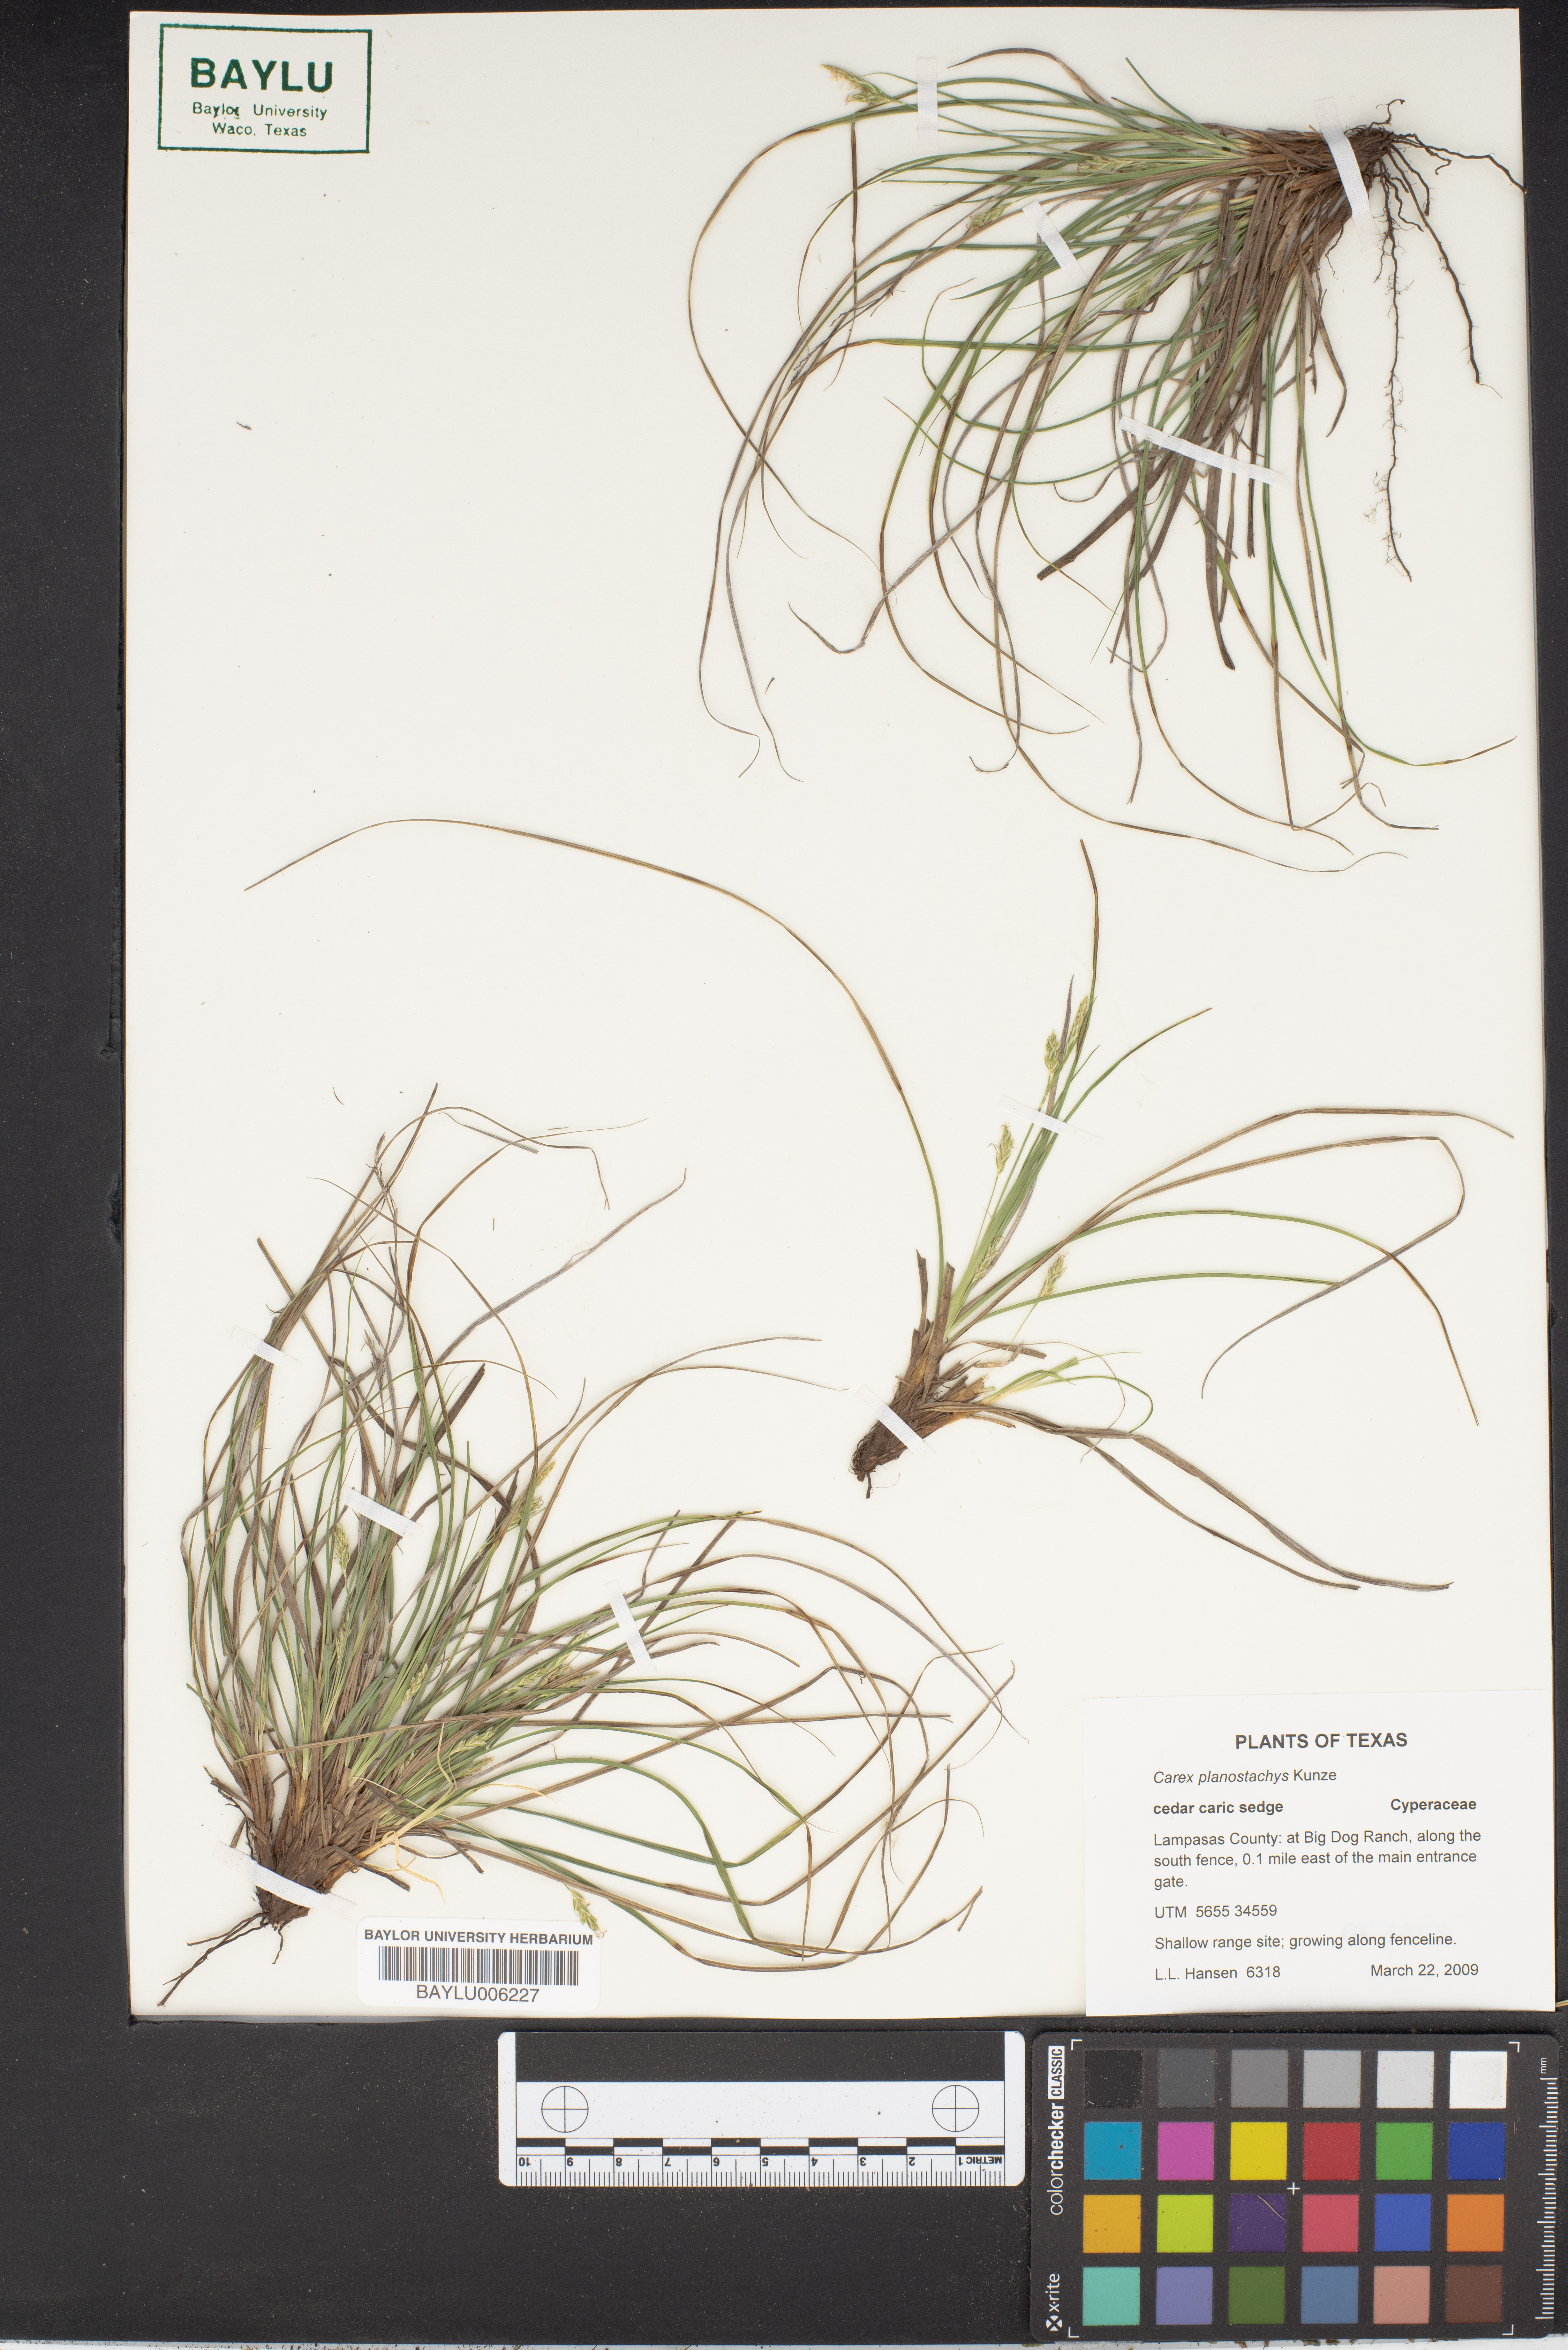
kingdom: Plantae
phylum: Tracheophyta
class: Liliopsida
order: Poales
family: Cyperaceae
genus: Carex
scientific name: Carex planostachys
